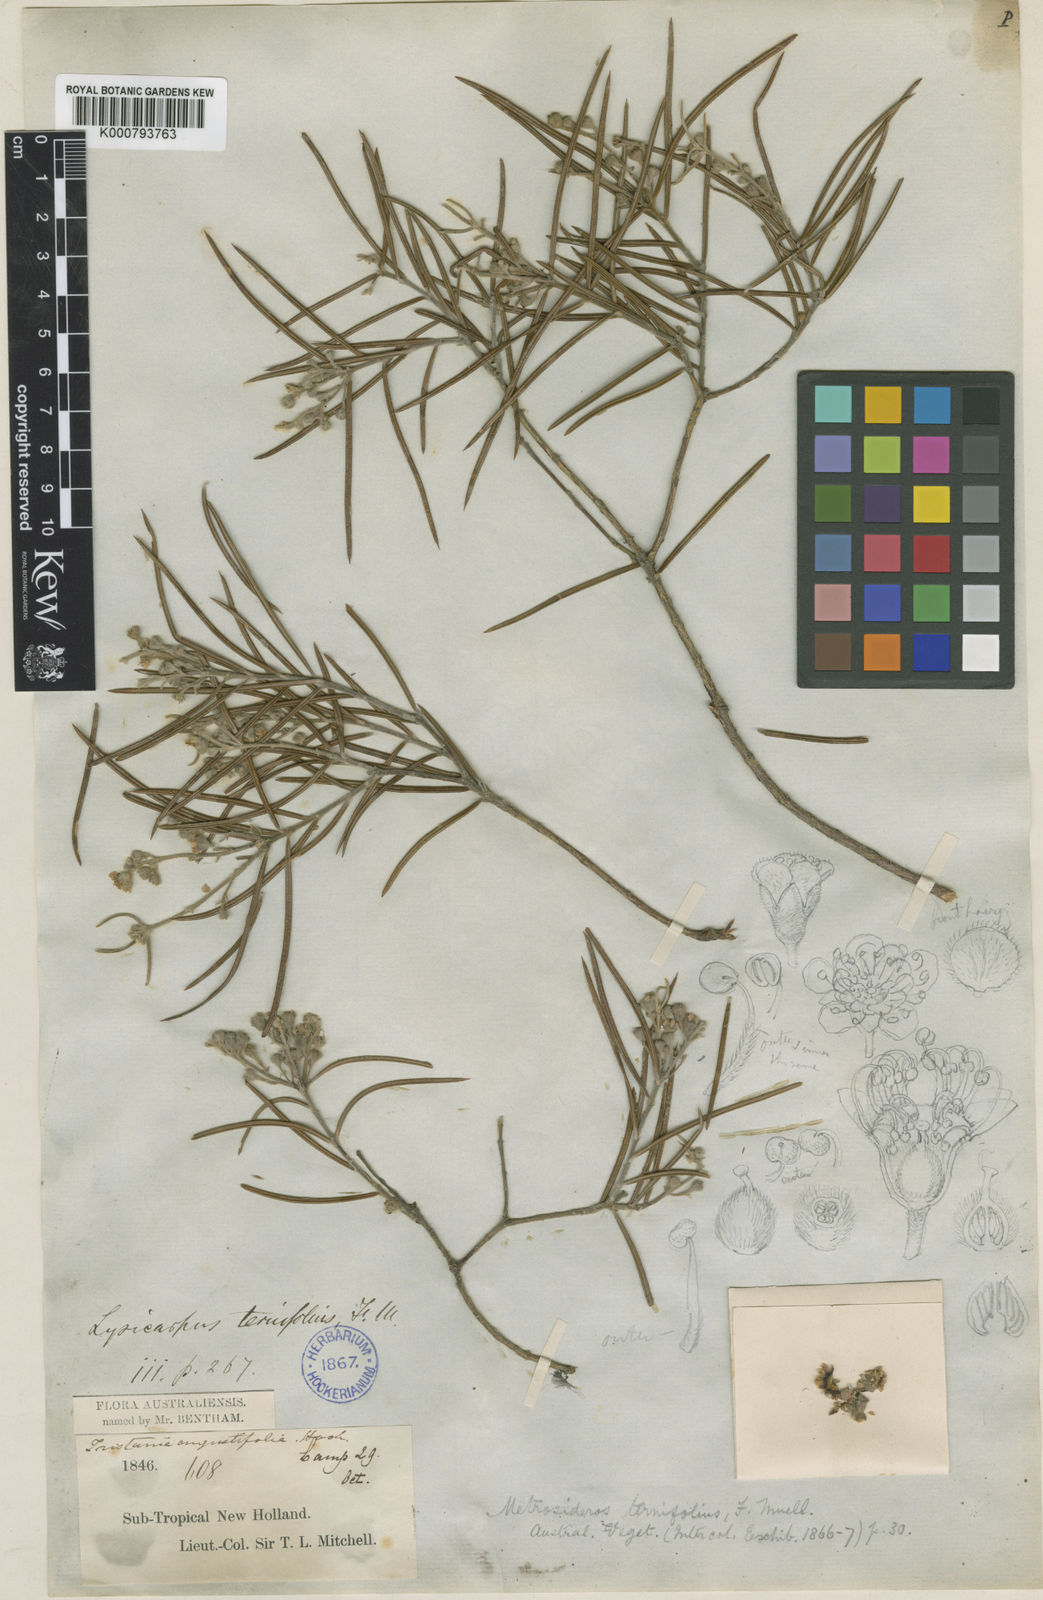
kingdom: Plantae
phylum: Tracheophyta
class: Magnoliopsida
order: Myrtales
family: Myrtaceae
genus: Lysicarpus
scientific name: Lysicarpus angustifolius
